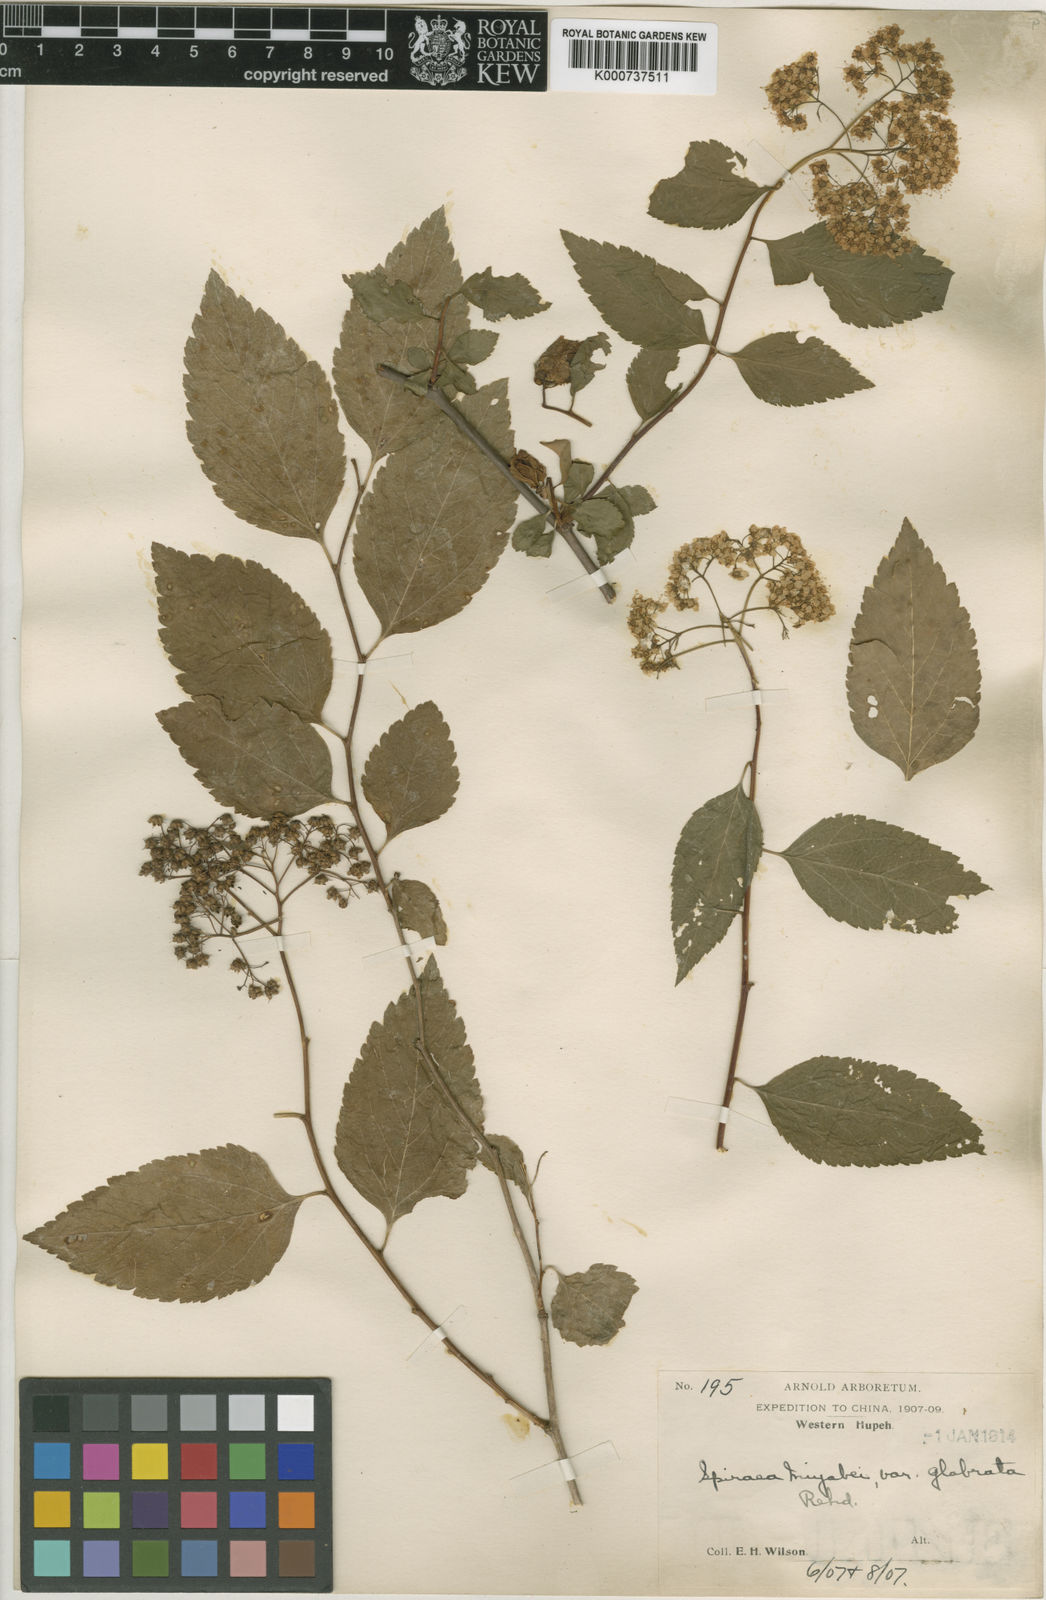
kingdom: Plantae
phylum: Tracheophyta
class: Magnoliopsida
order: Rosales
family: Rosaceae
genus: Spiraea
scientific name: Spiraea miyabei
